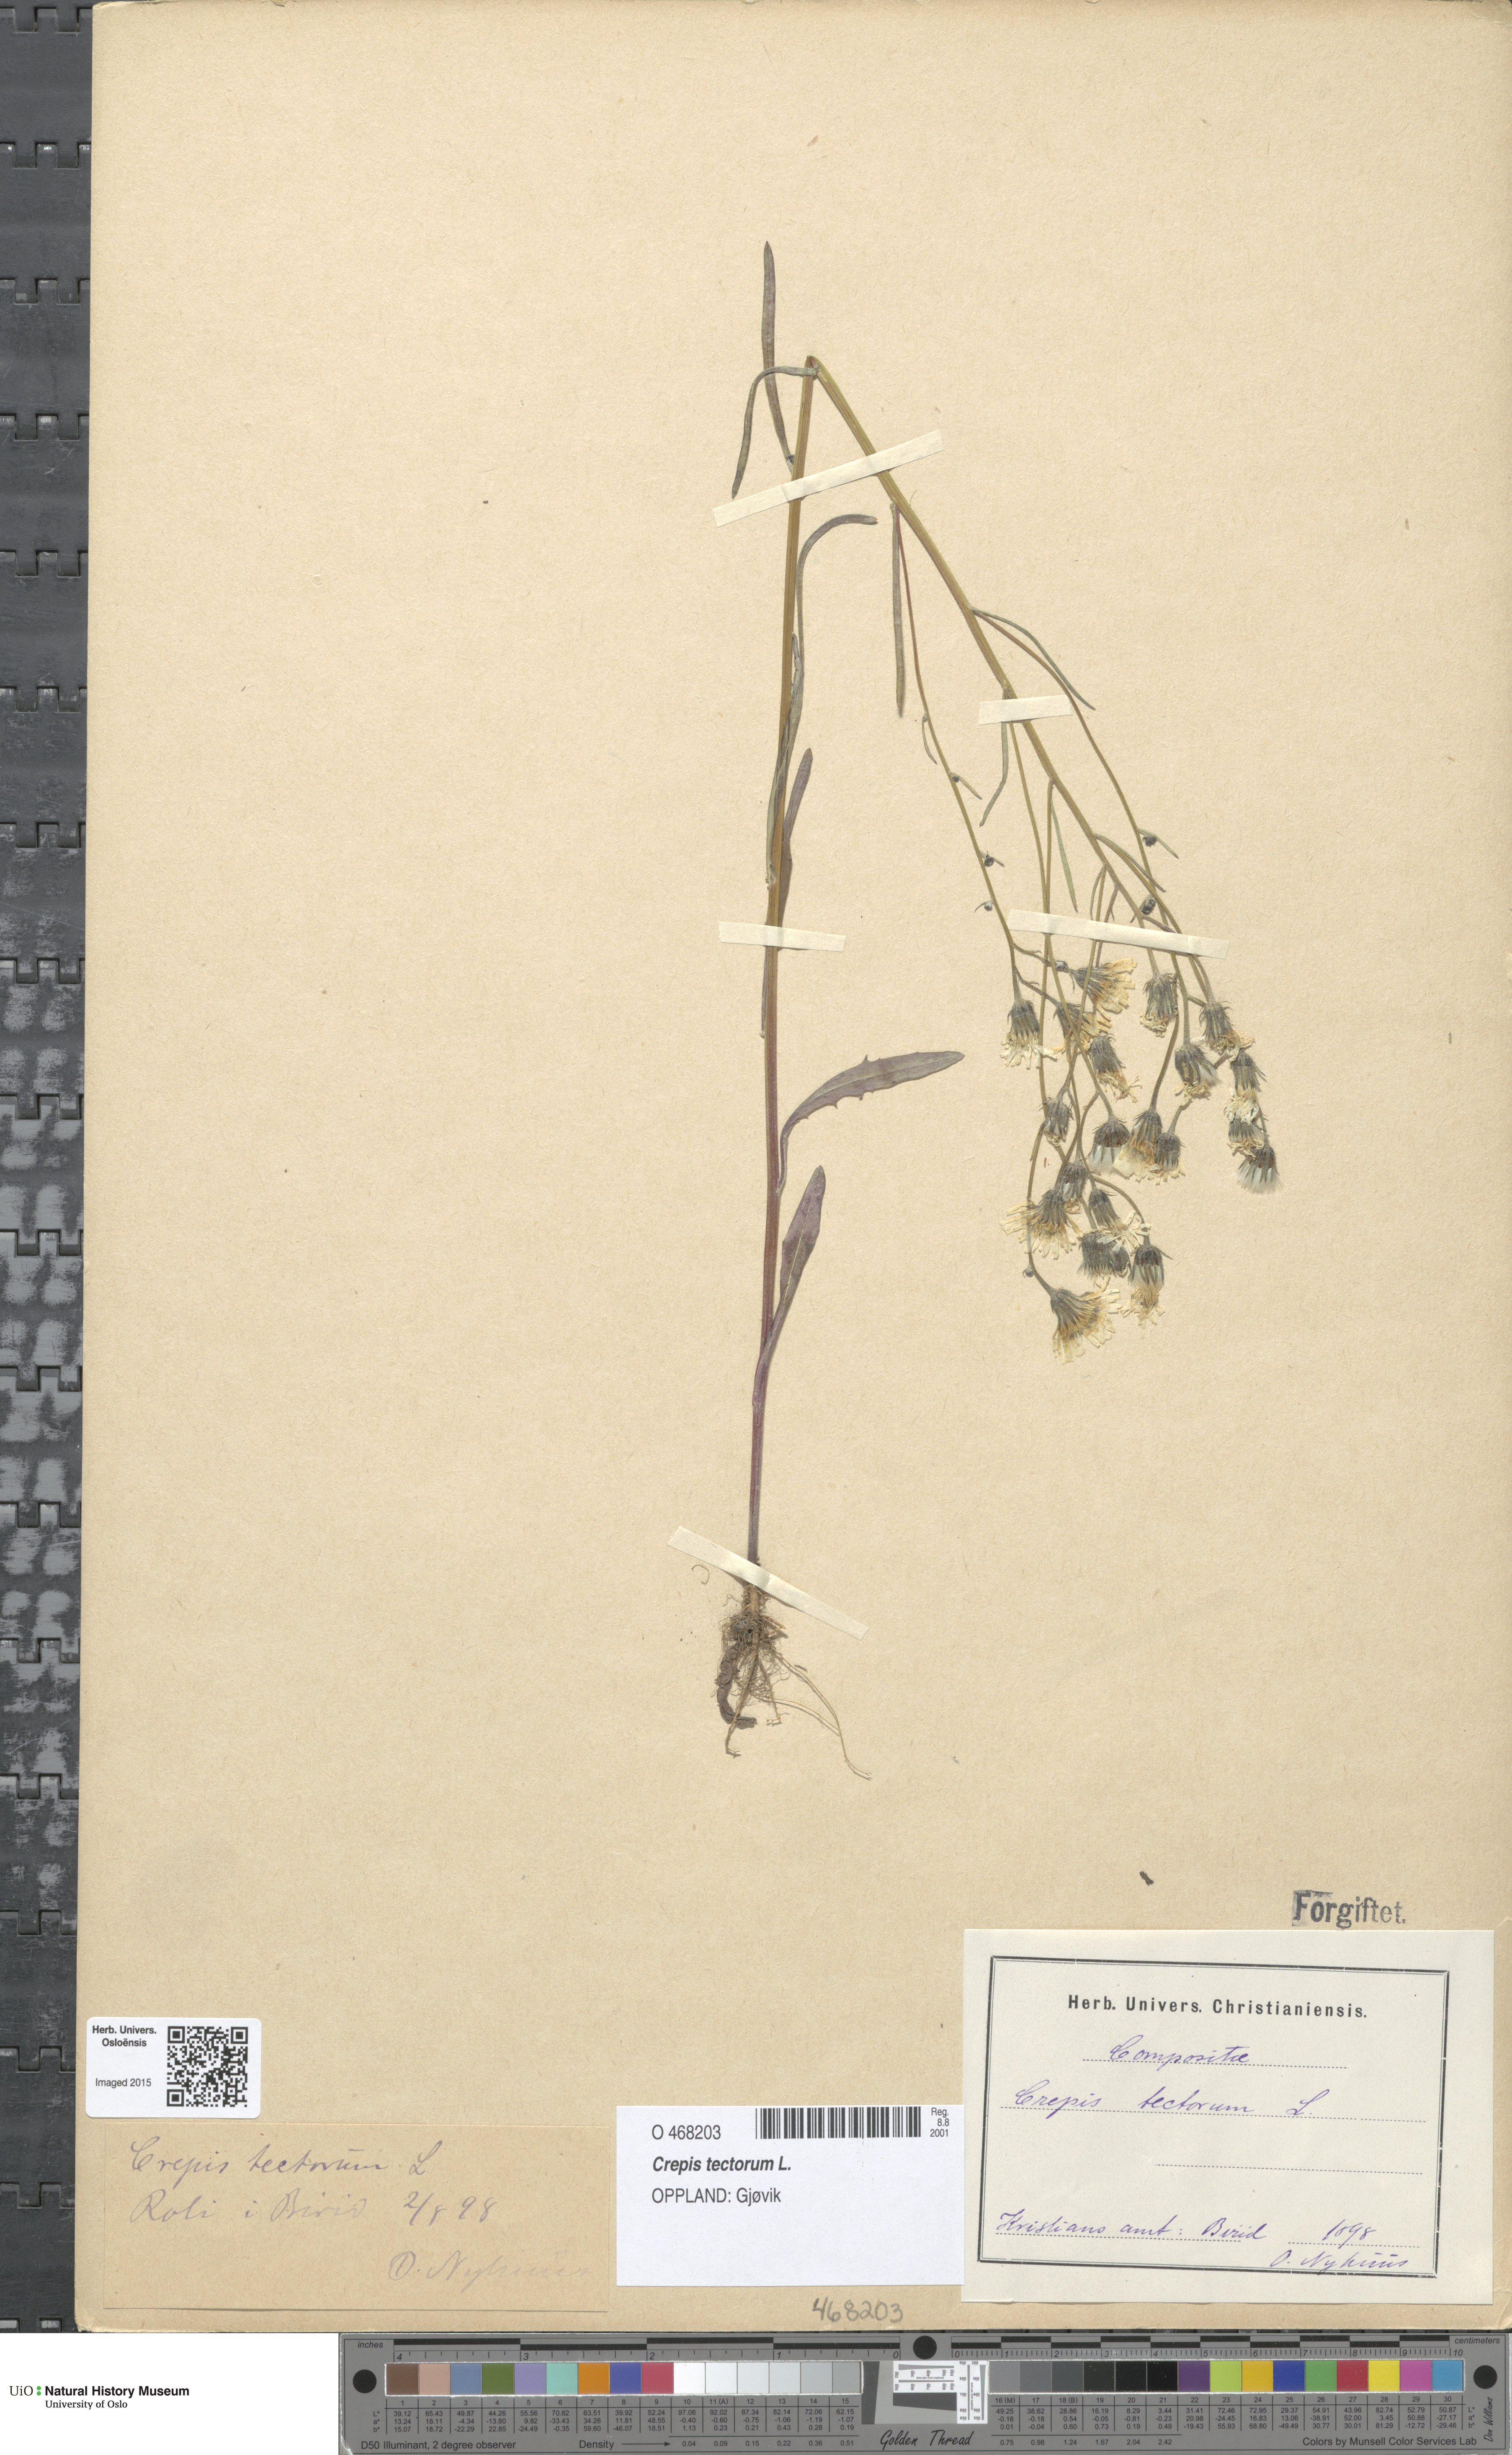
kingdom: Plantae
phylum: Tracheophyta
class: Magnoliopsida
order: Asterales
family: Asteraceae
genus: Crepis
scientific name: Crepis tectorum
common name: Narrow-leaved hawk's-beard
